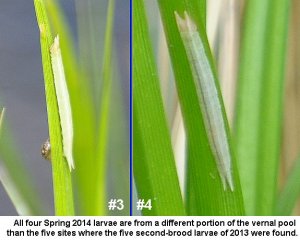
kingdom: Animalia
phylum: Arthropoda
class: Insecta
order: Lepidoptera
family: Nymphalidae
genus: Lethe
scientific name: Lethe eurydice
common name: Appalachian Eyed Brown
